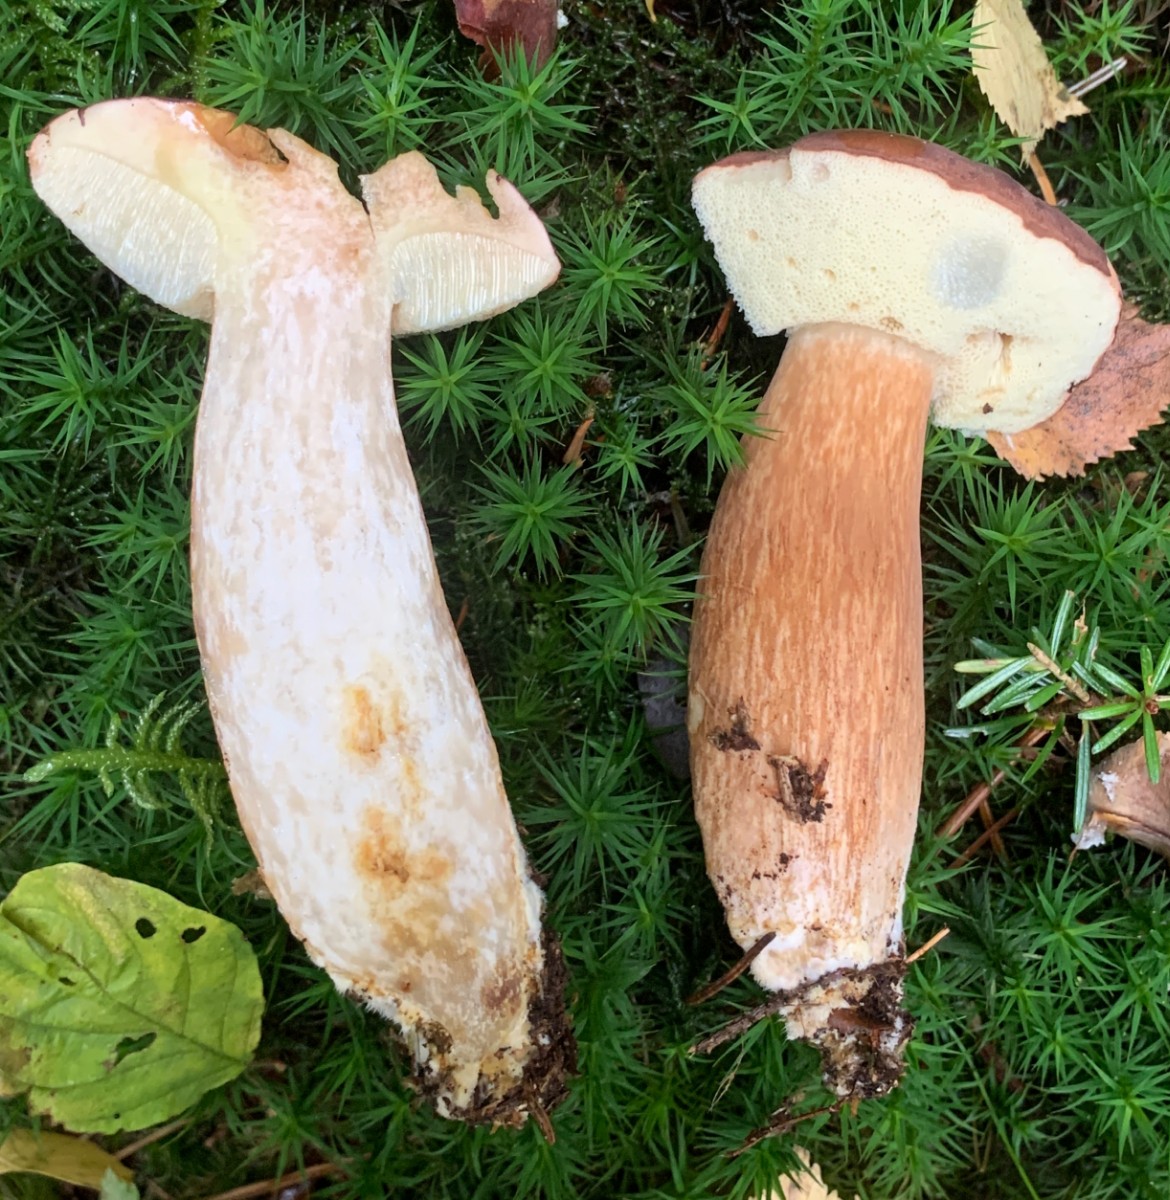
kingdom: Fungi
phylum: Basidiomycota
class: Agaricomycetes
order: Boletales
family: Boletaceae
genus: Imleria
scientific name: Imleria badia
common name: brunstokket rørhat
